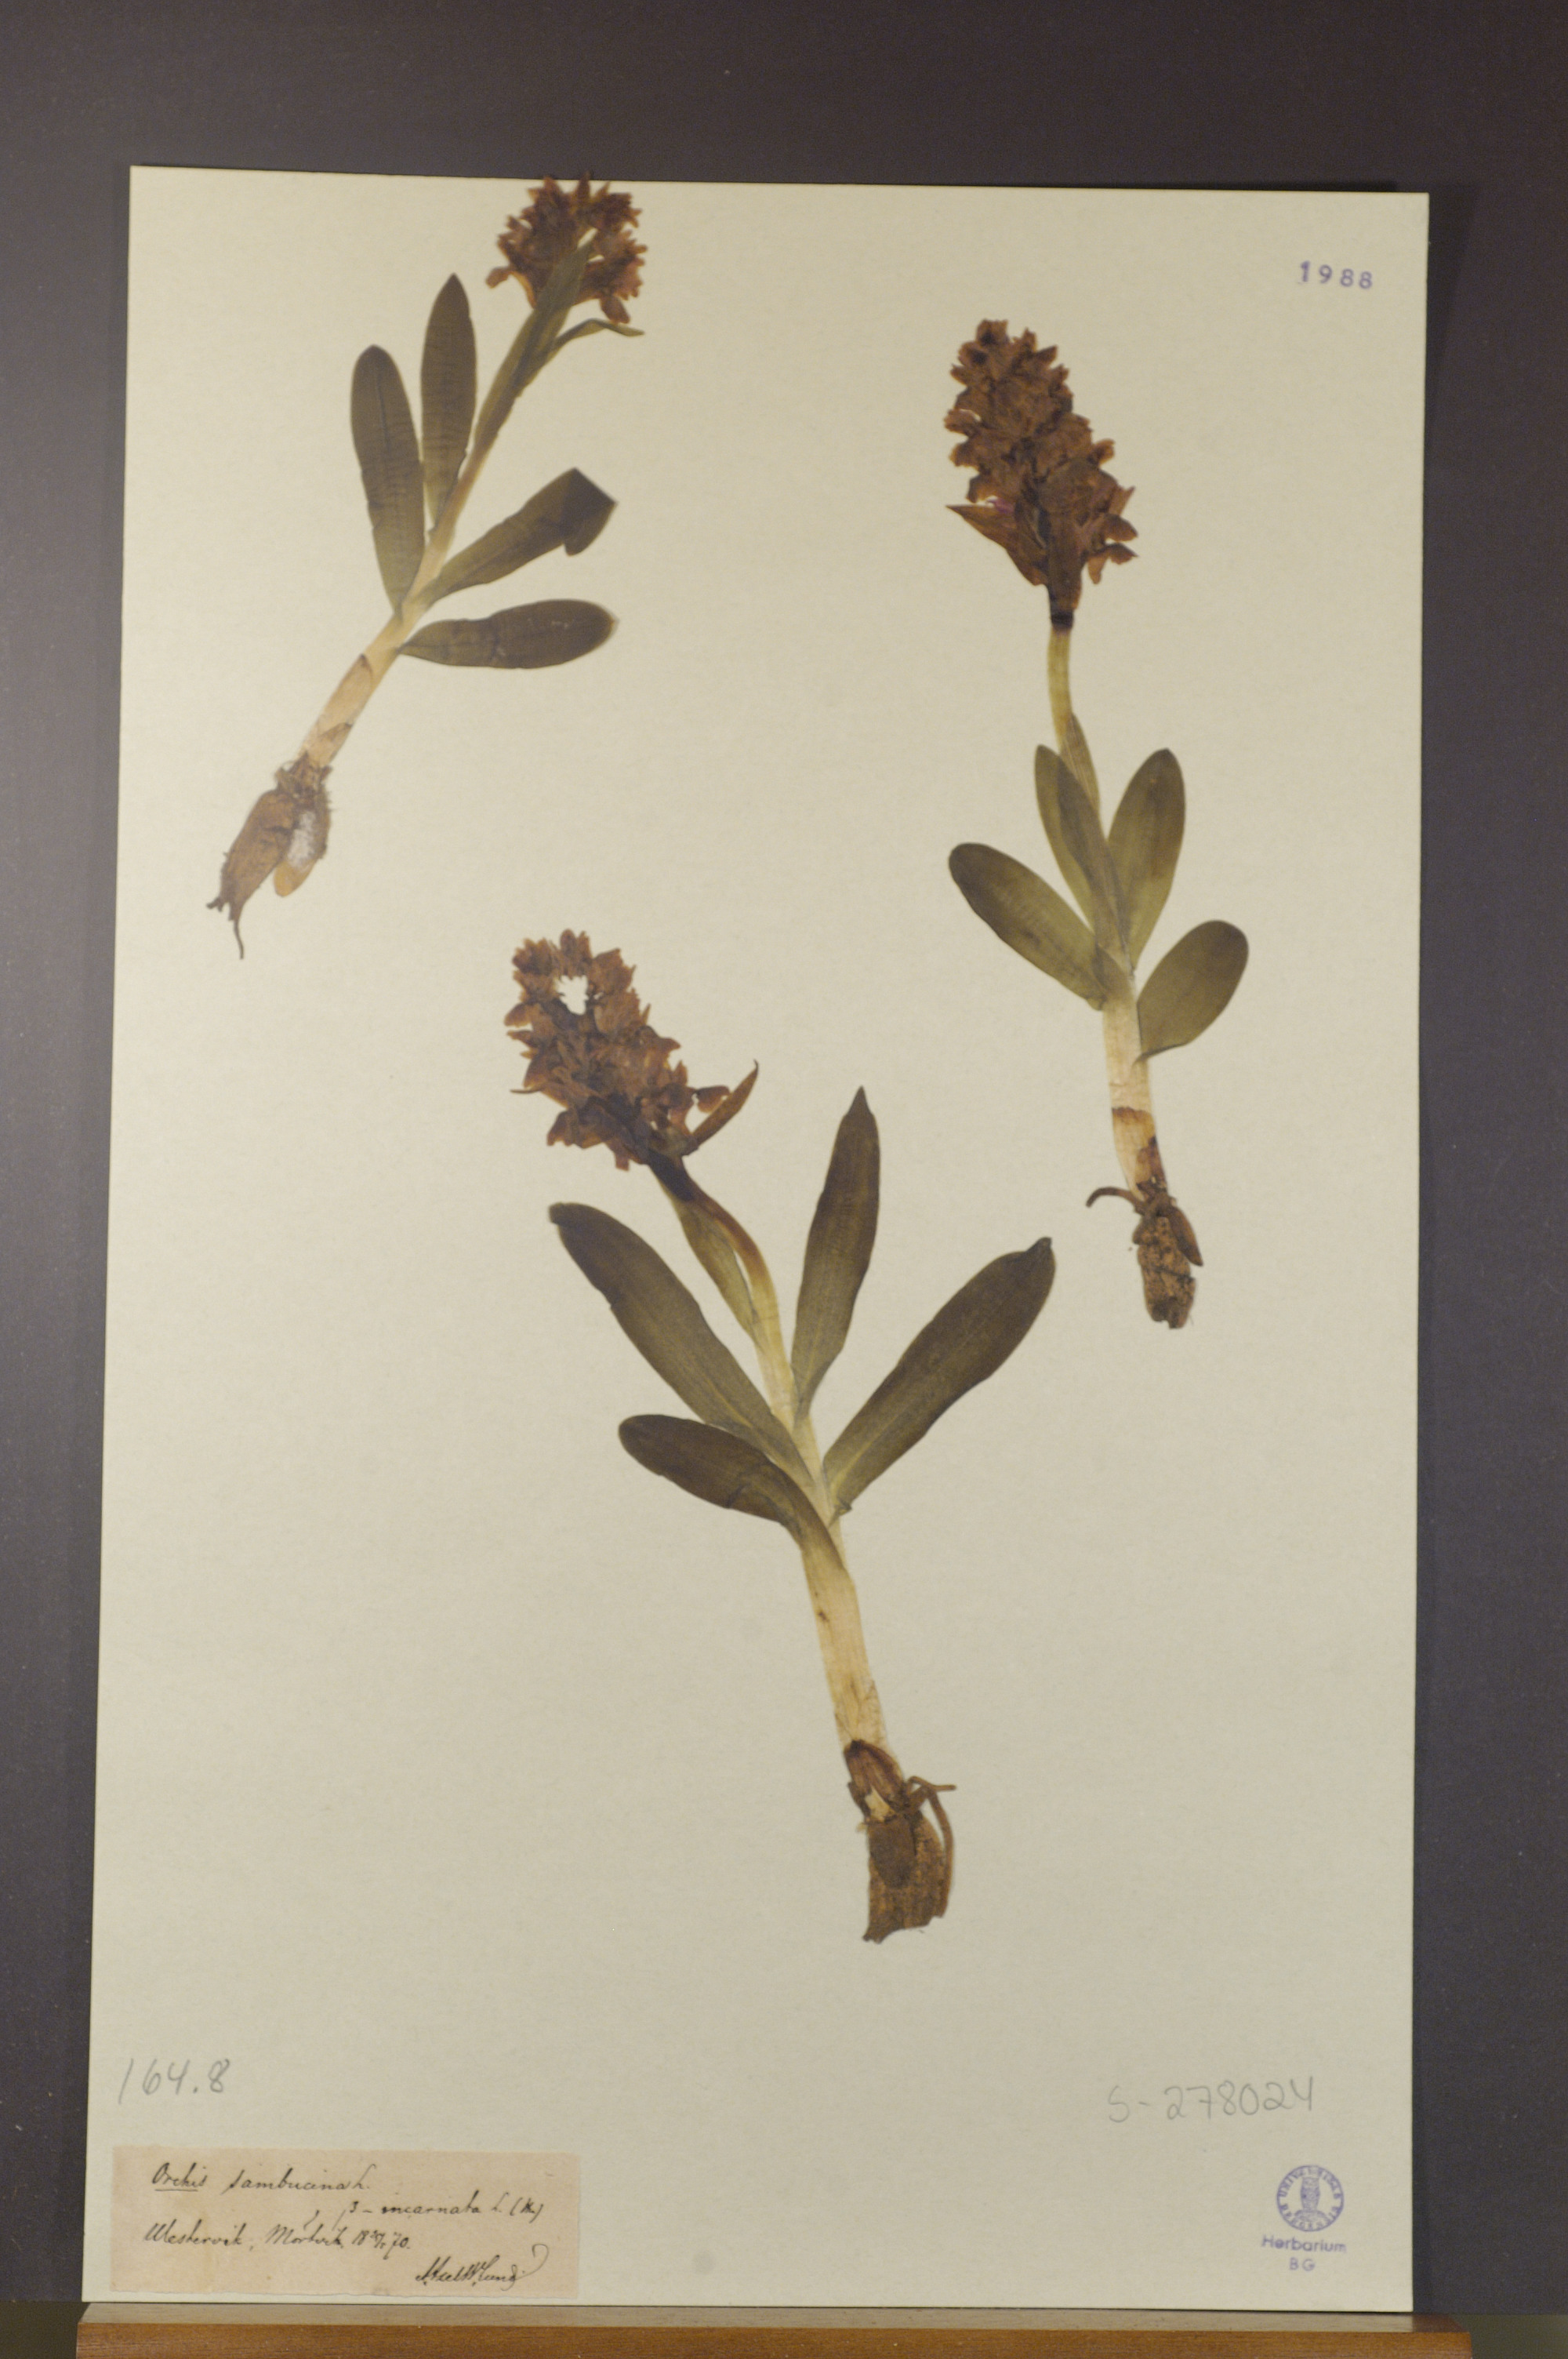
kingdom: Plantae
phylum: Tracheophyta
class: Liliopsida
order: Asparagales
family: Orchidaceae
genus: Dactylorhiza
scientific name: Dactylorhiza sambucina
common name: Elder-flowered orchid
